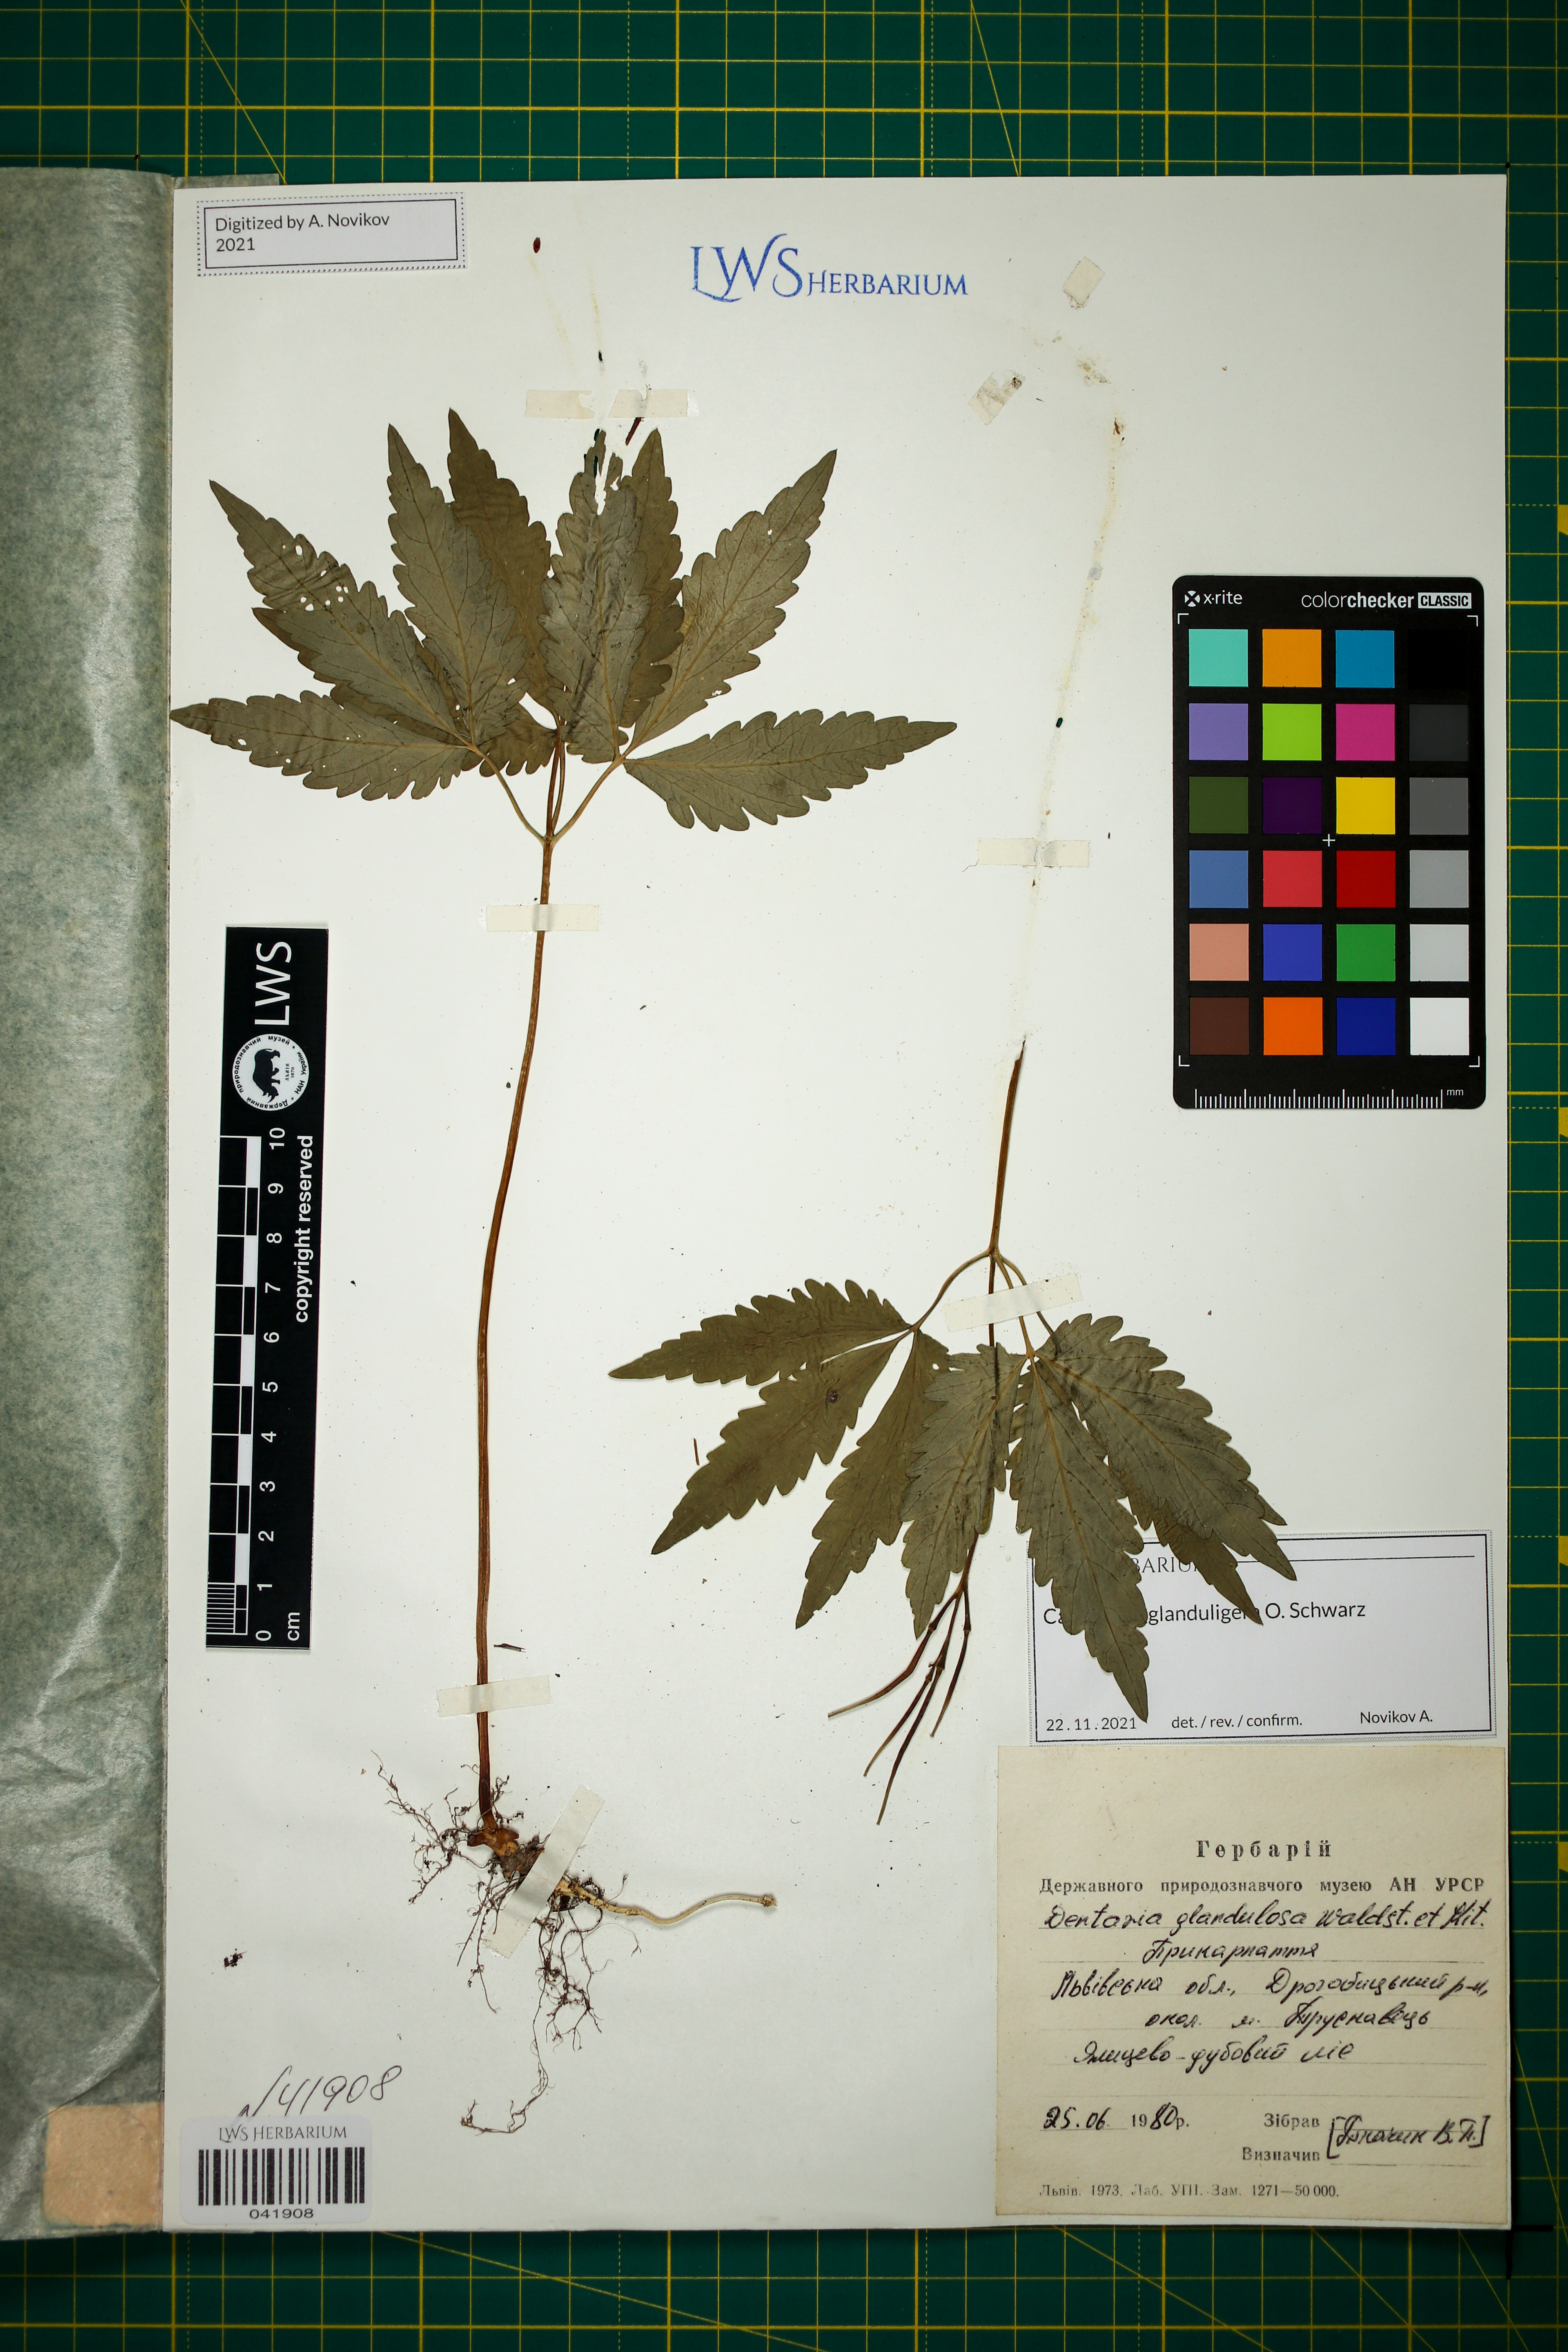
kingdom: Plantae
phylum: Tracheophyta
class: Magnoliopsida
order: Brassicales
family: Brassicaceae
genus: Cardamine
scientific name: Cardamine glanduligera
